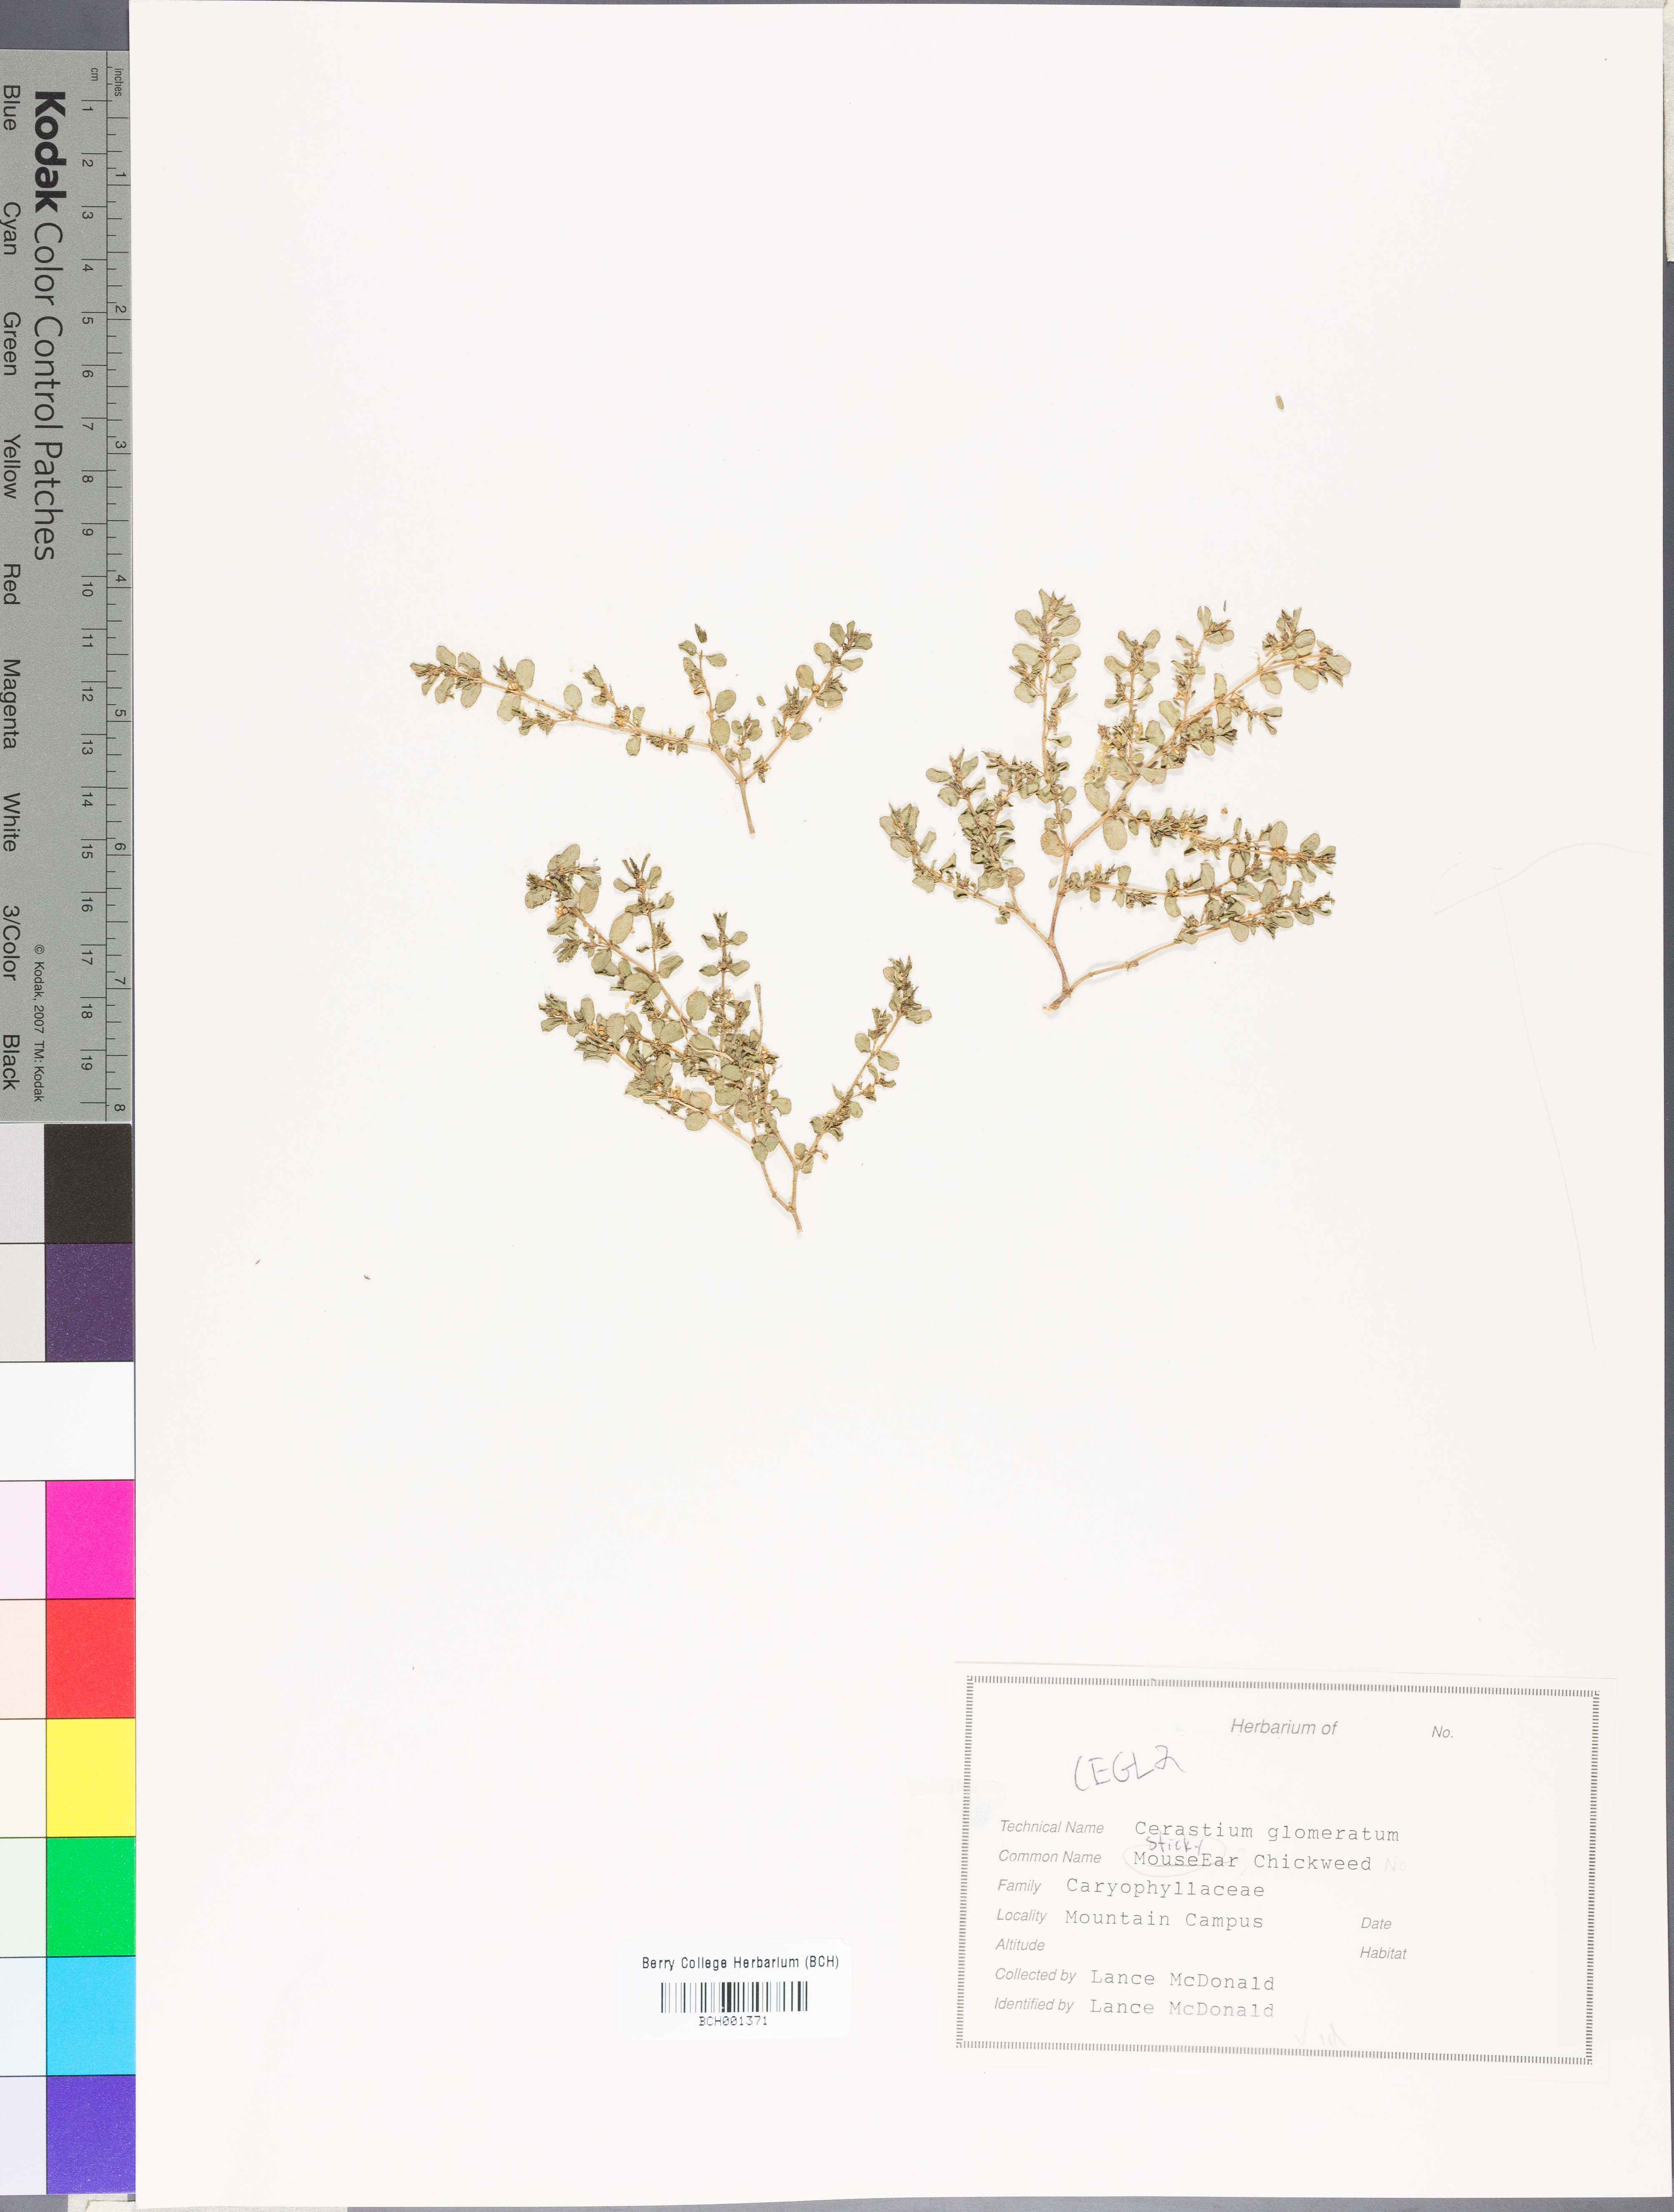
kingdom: Plantae
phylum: Tracheophyta
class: Magnoliopsida
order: Caryophyllales
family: Caryophyllaceae
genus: Cerastium
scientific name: Cerastium glomeratum
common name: Sticky chickweed
